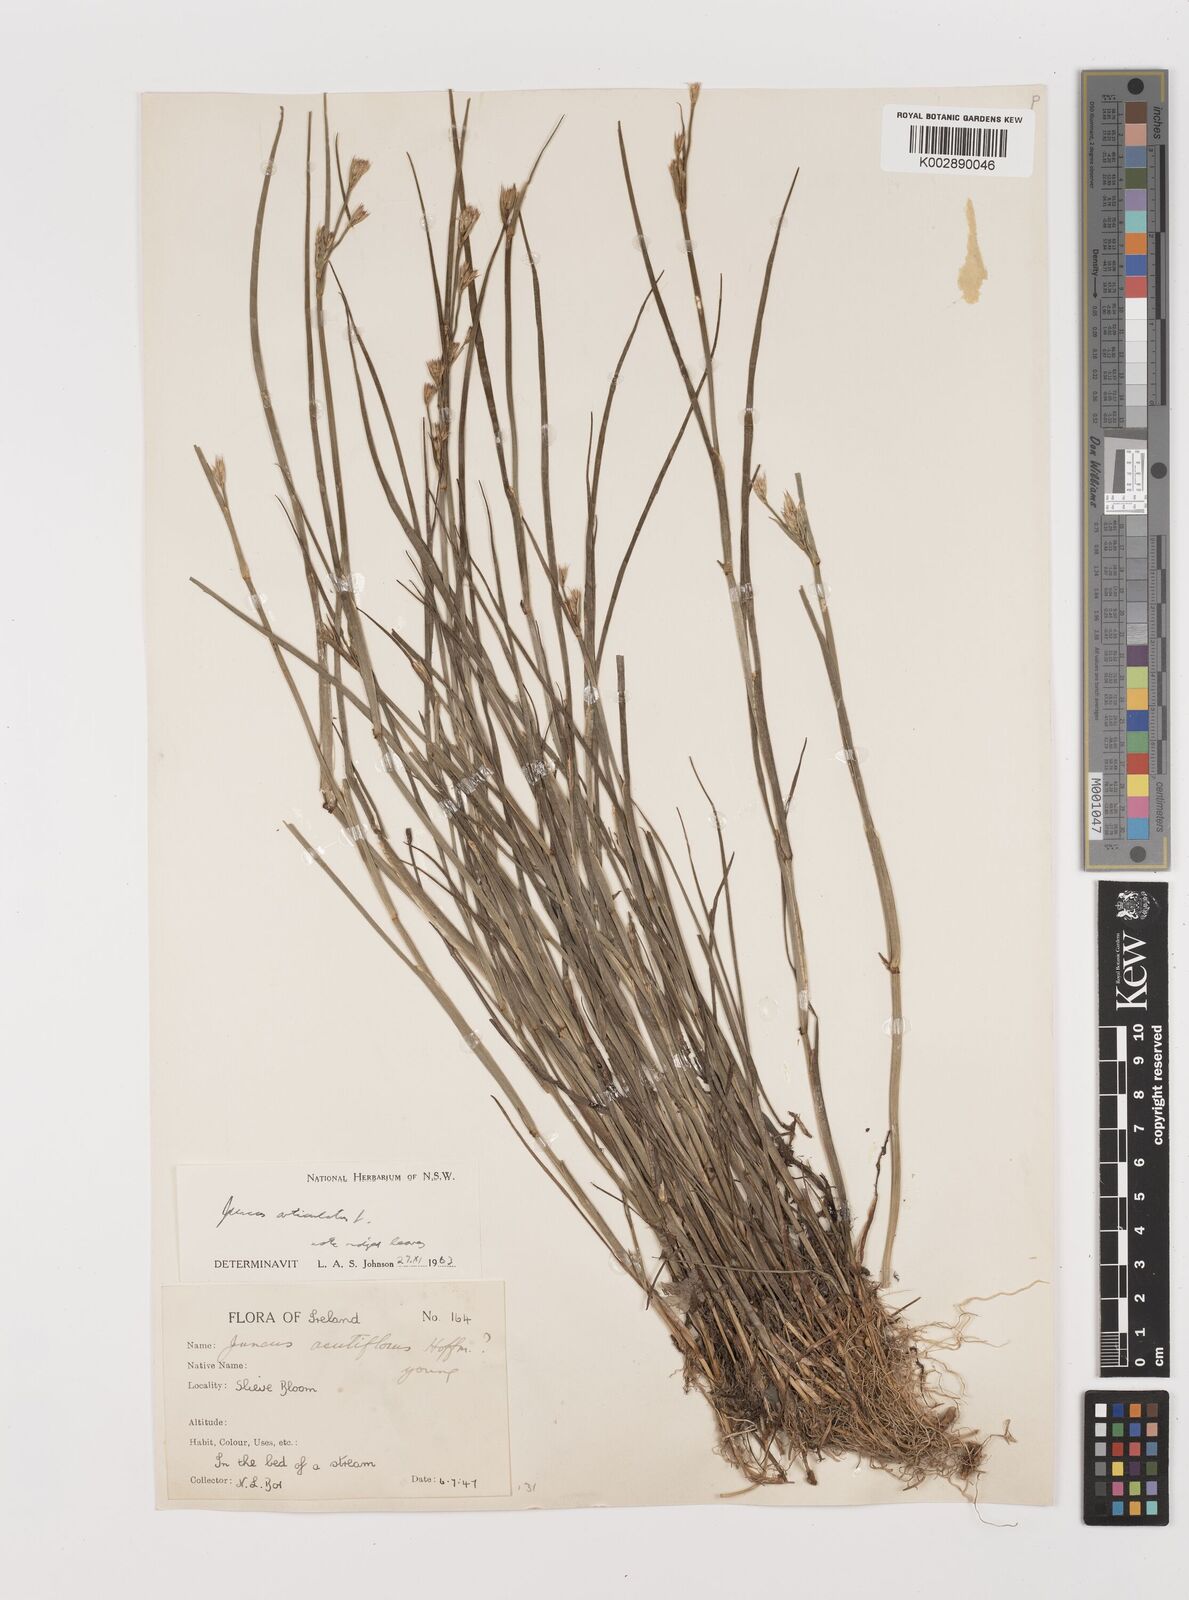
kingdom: Plantae
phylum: Tracheophyta
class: Liliopsida
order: Poales
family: Juncaceae
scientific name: Juncaceae
